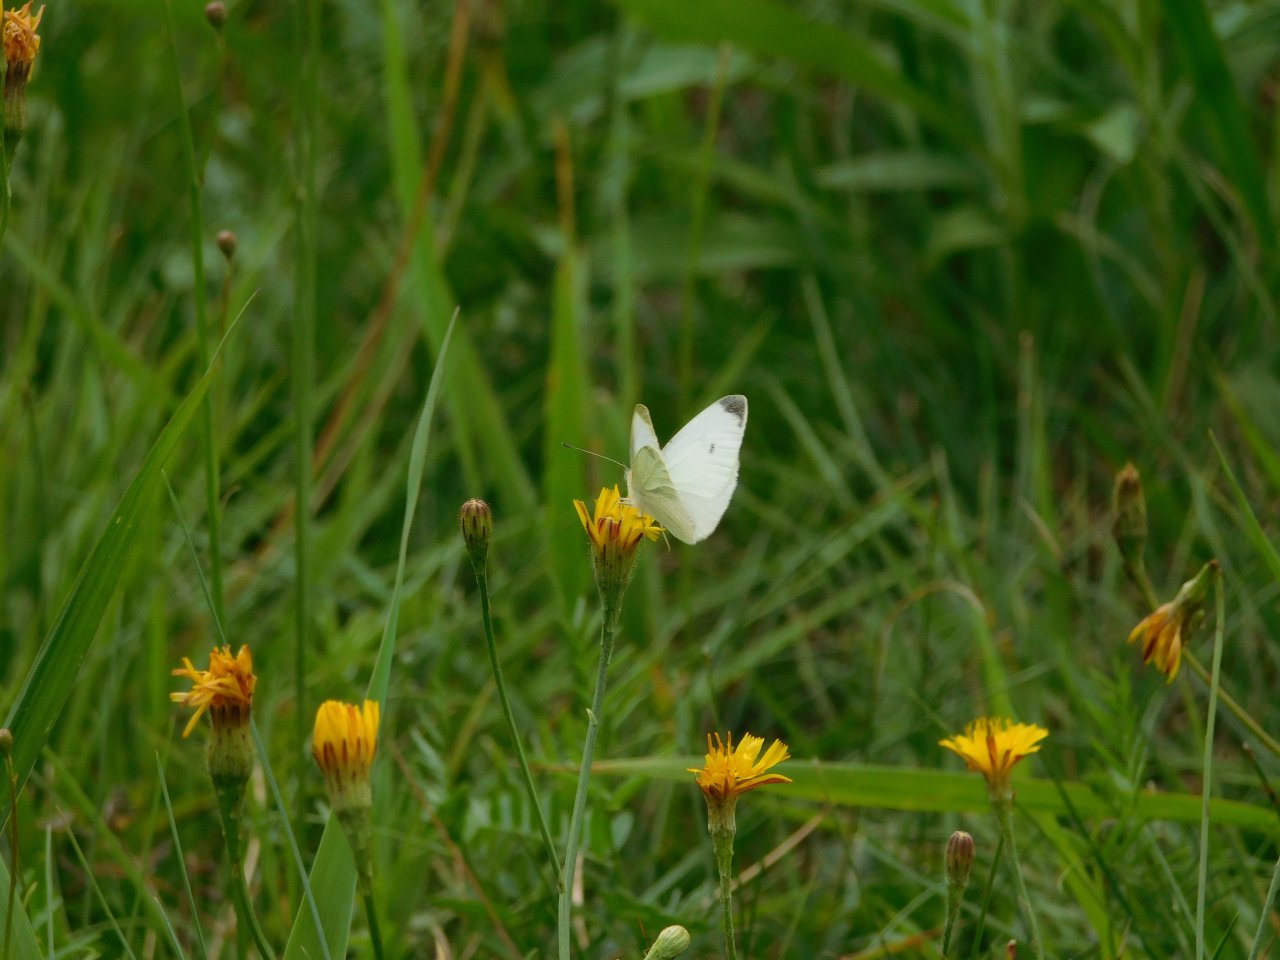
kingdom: Animalia
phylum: Arthropoda
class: Insecta
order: Lepidoptera
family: Pieridae
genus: Pieris
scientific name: Pieris rapae
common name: Cabbage White
